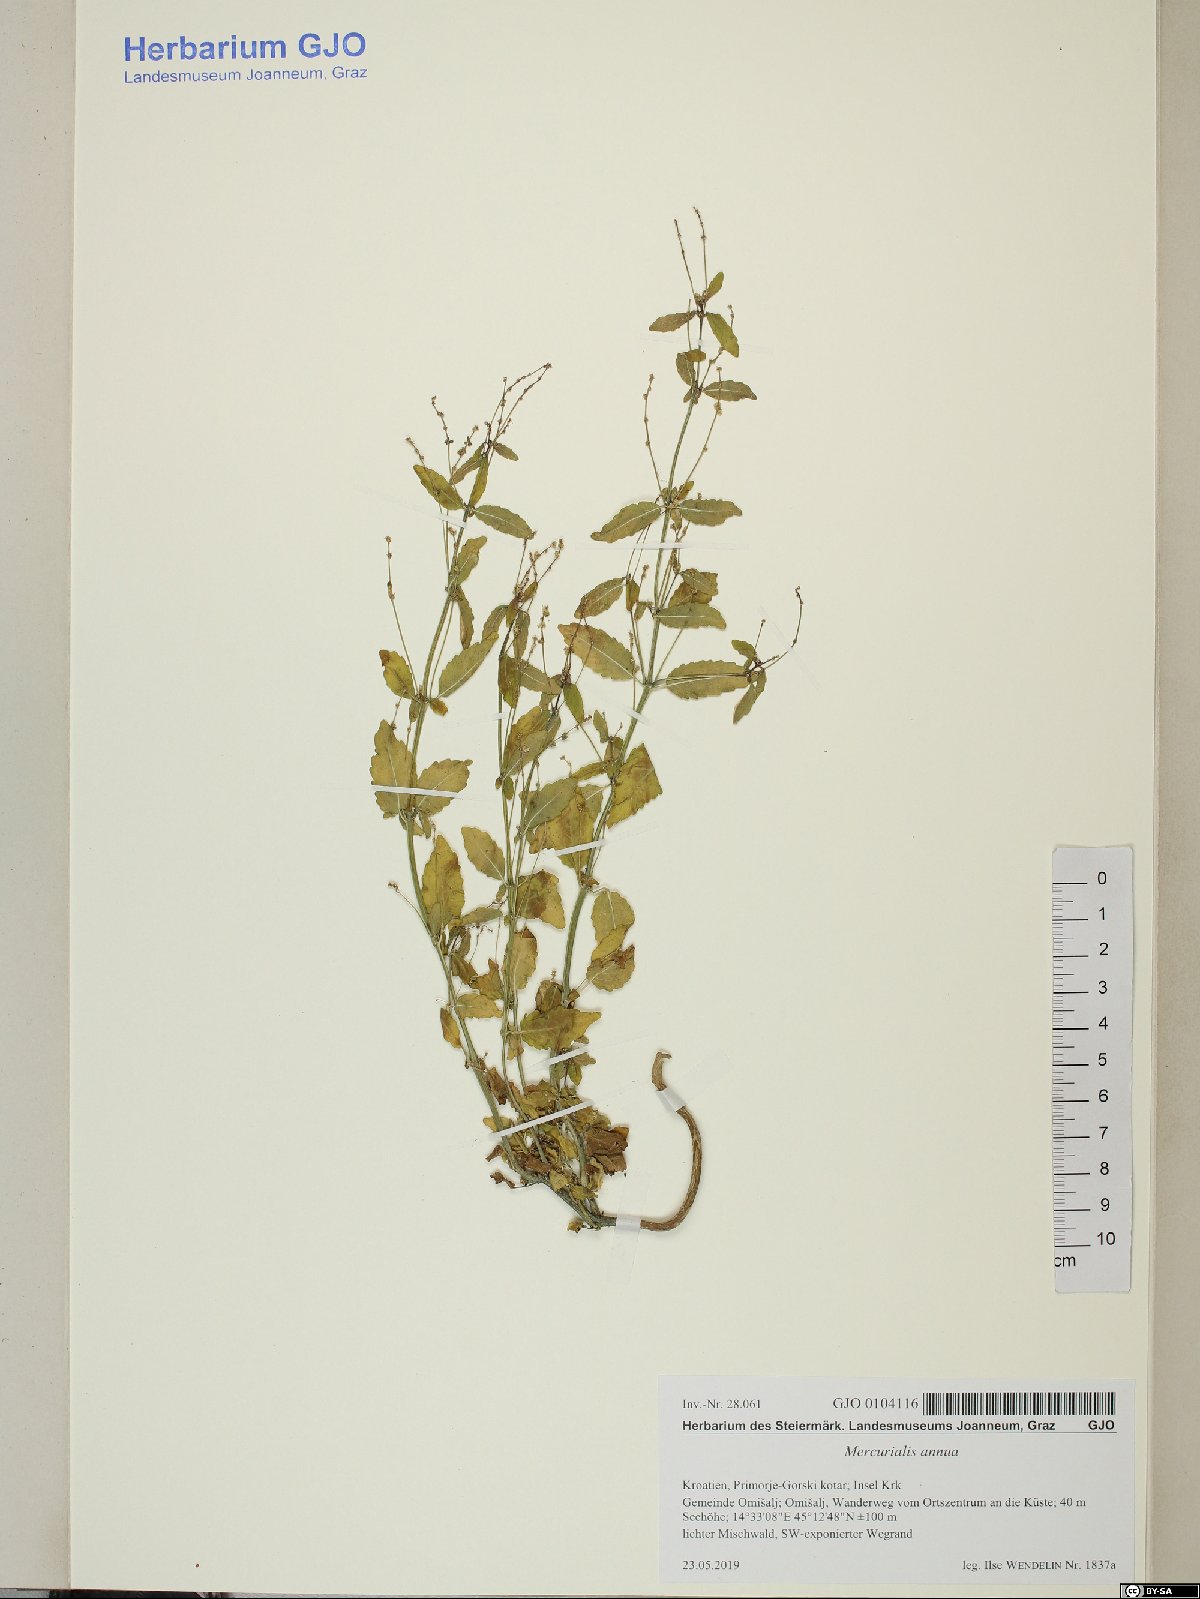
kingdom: Plantae
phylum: Tracheophyta
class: Magnoliopsida
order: Malpighiales
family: Euphorbiaceae
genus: Mercurialis
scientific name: Mercurialis annua
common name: Annual mercury
